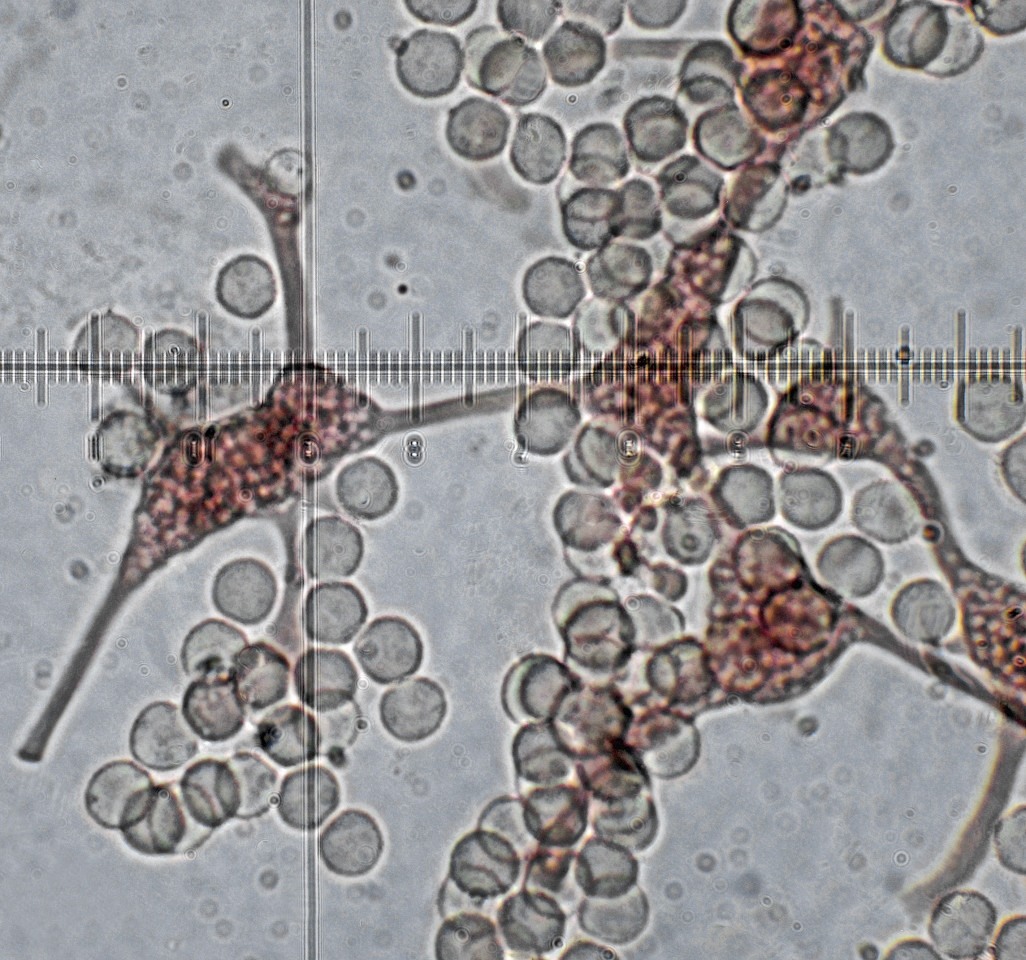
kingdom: Protozoa
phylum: Mycetozoa
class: Myxomycetes
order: Cribrariales
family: Cribrariaceae
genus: Cribraria
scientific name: Cribraria persoonii
